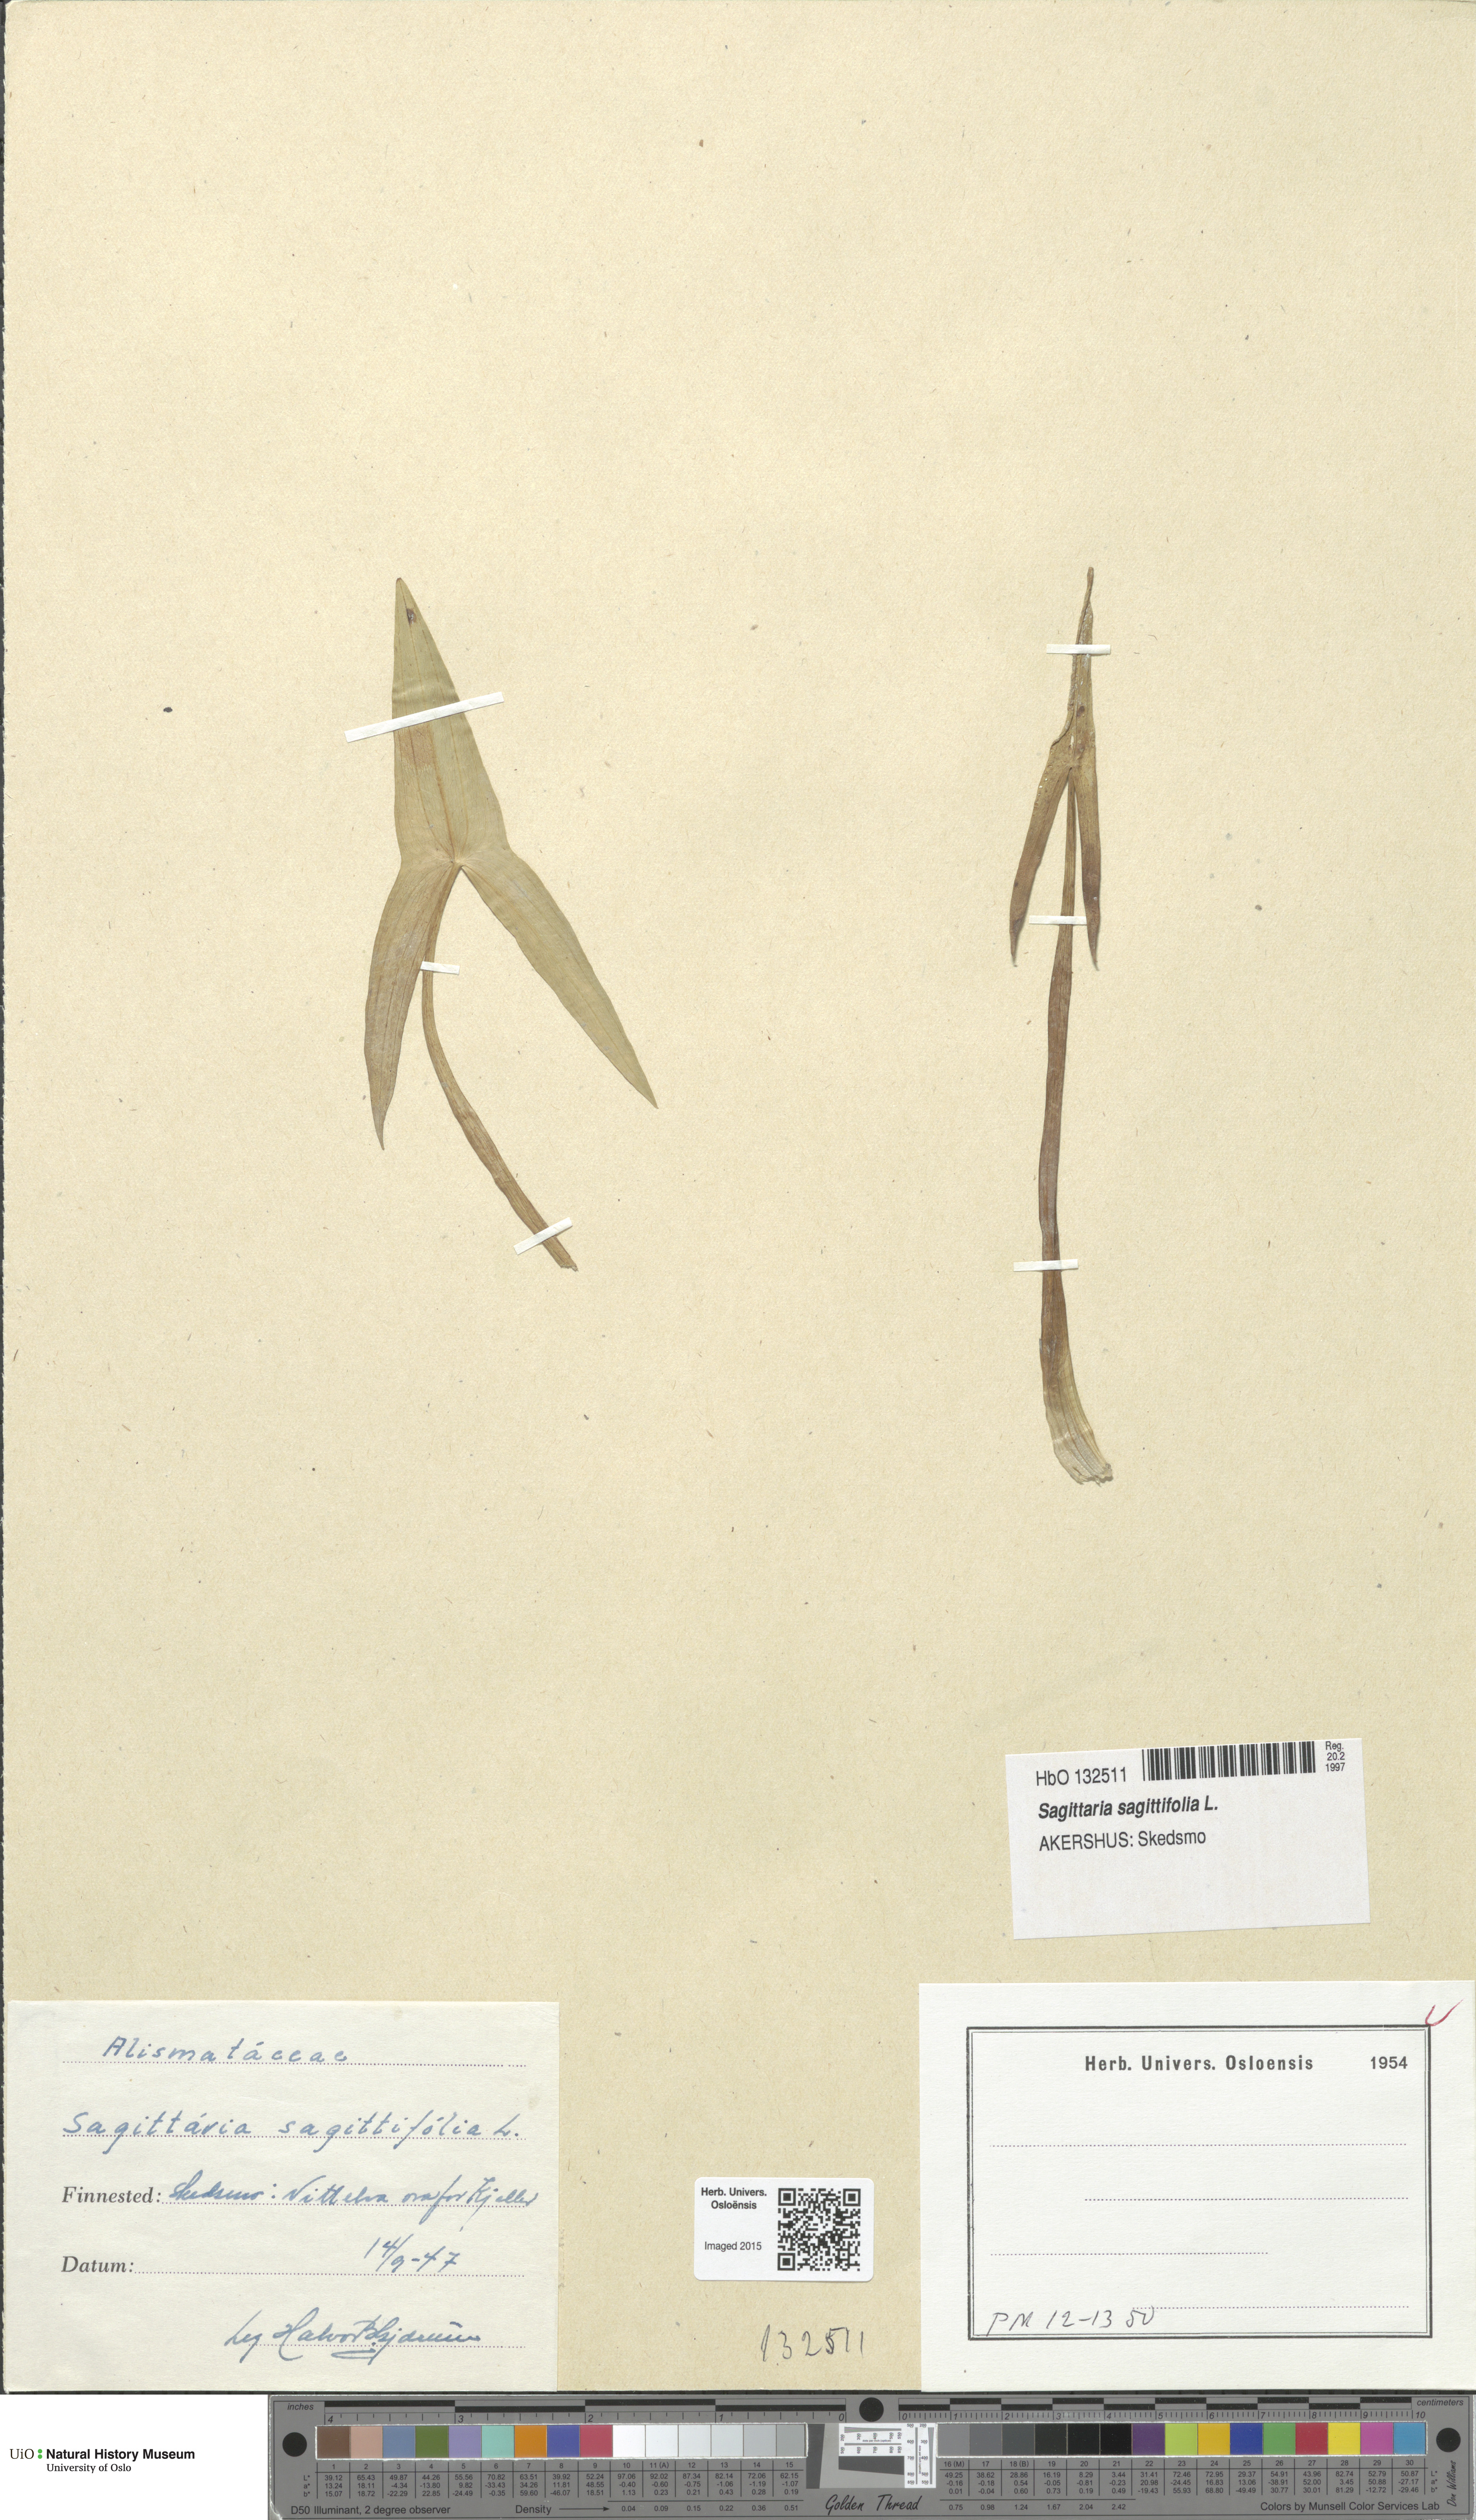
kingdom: Plantae
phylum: Tracheophyta
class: Liliopsida
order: Alismatales
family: Alismataceae
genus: Sagittaria
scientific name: Sagittaria sagittifolia
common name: Arrowhead
